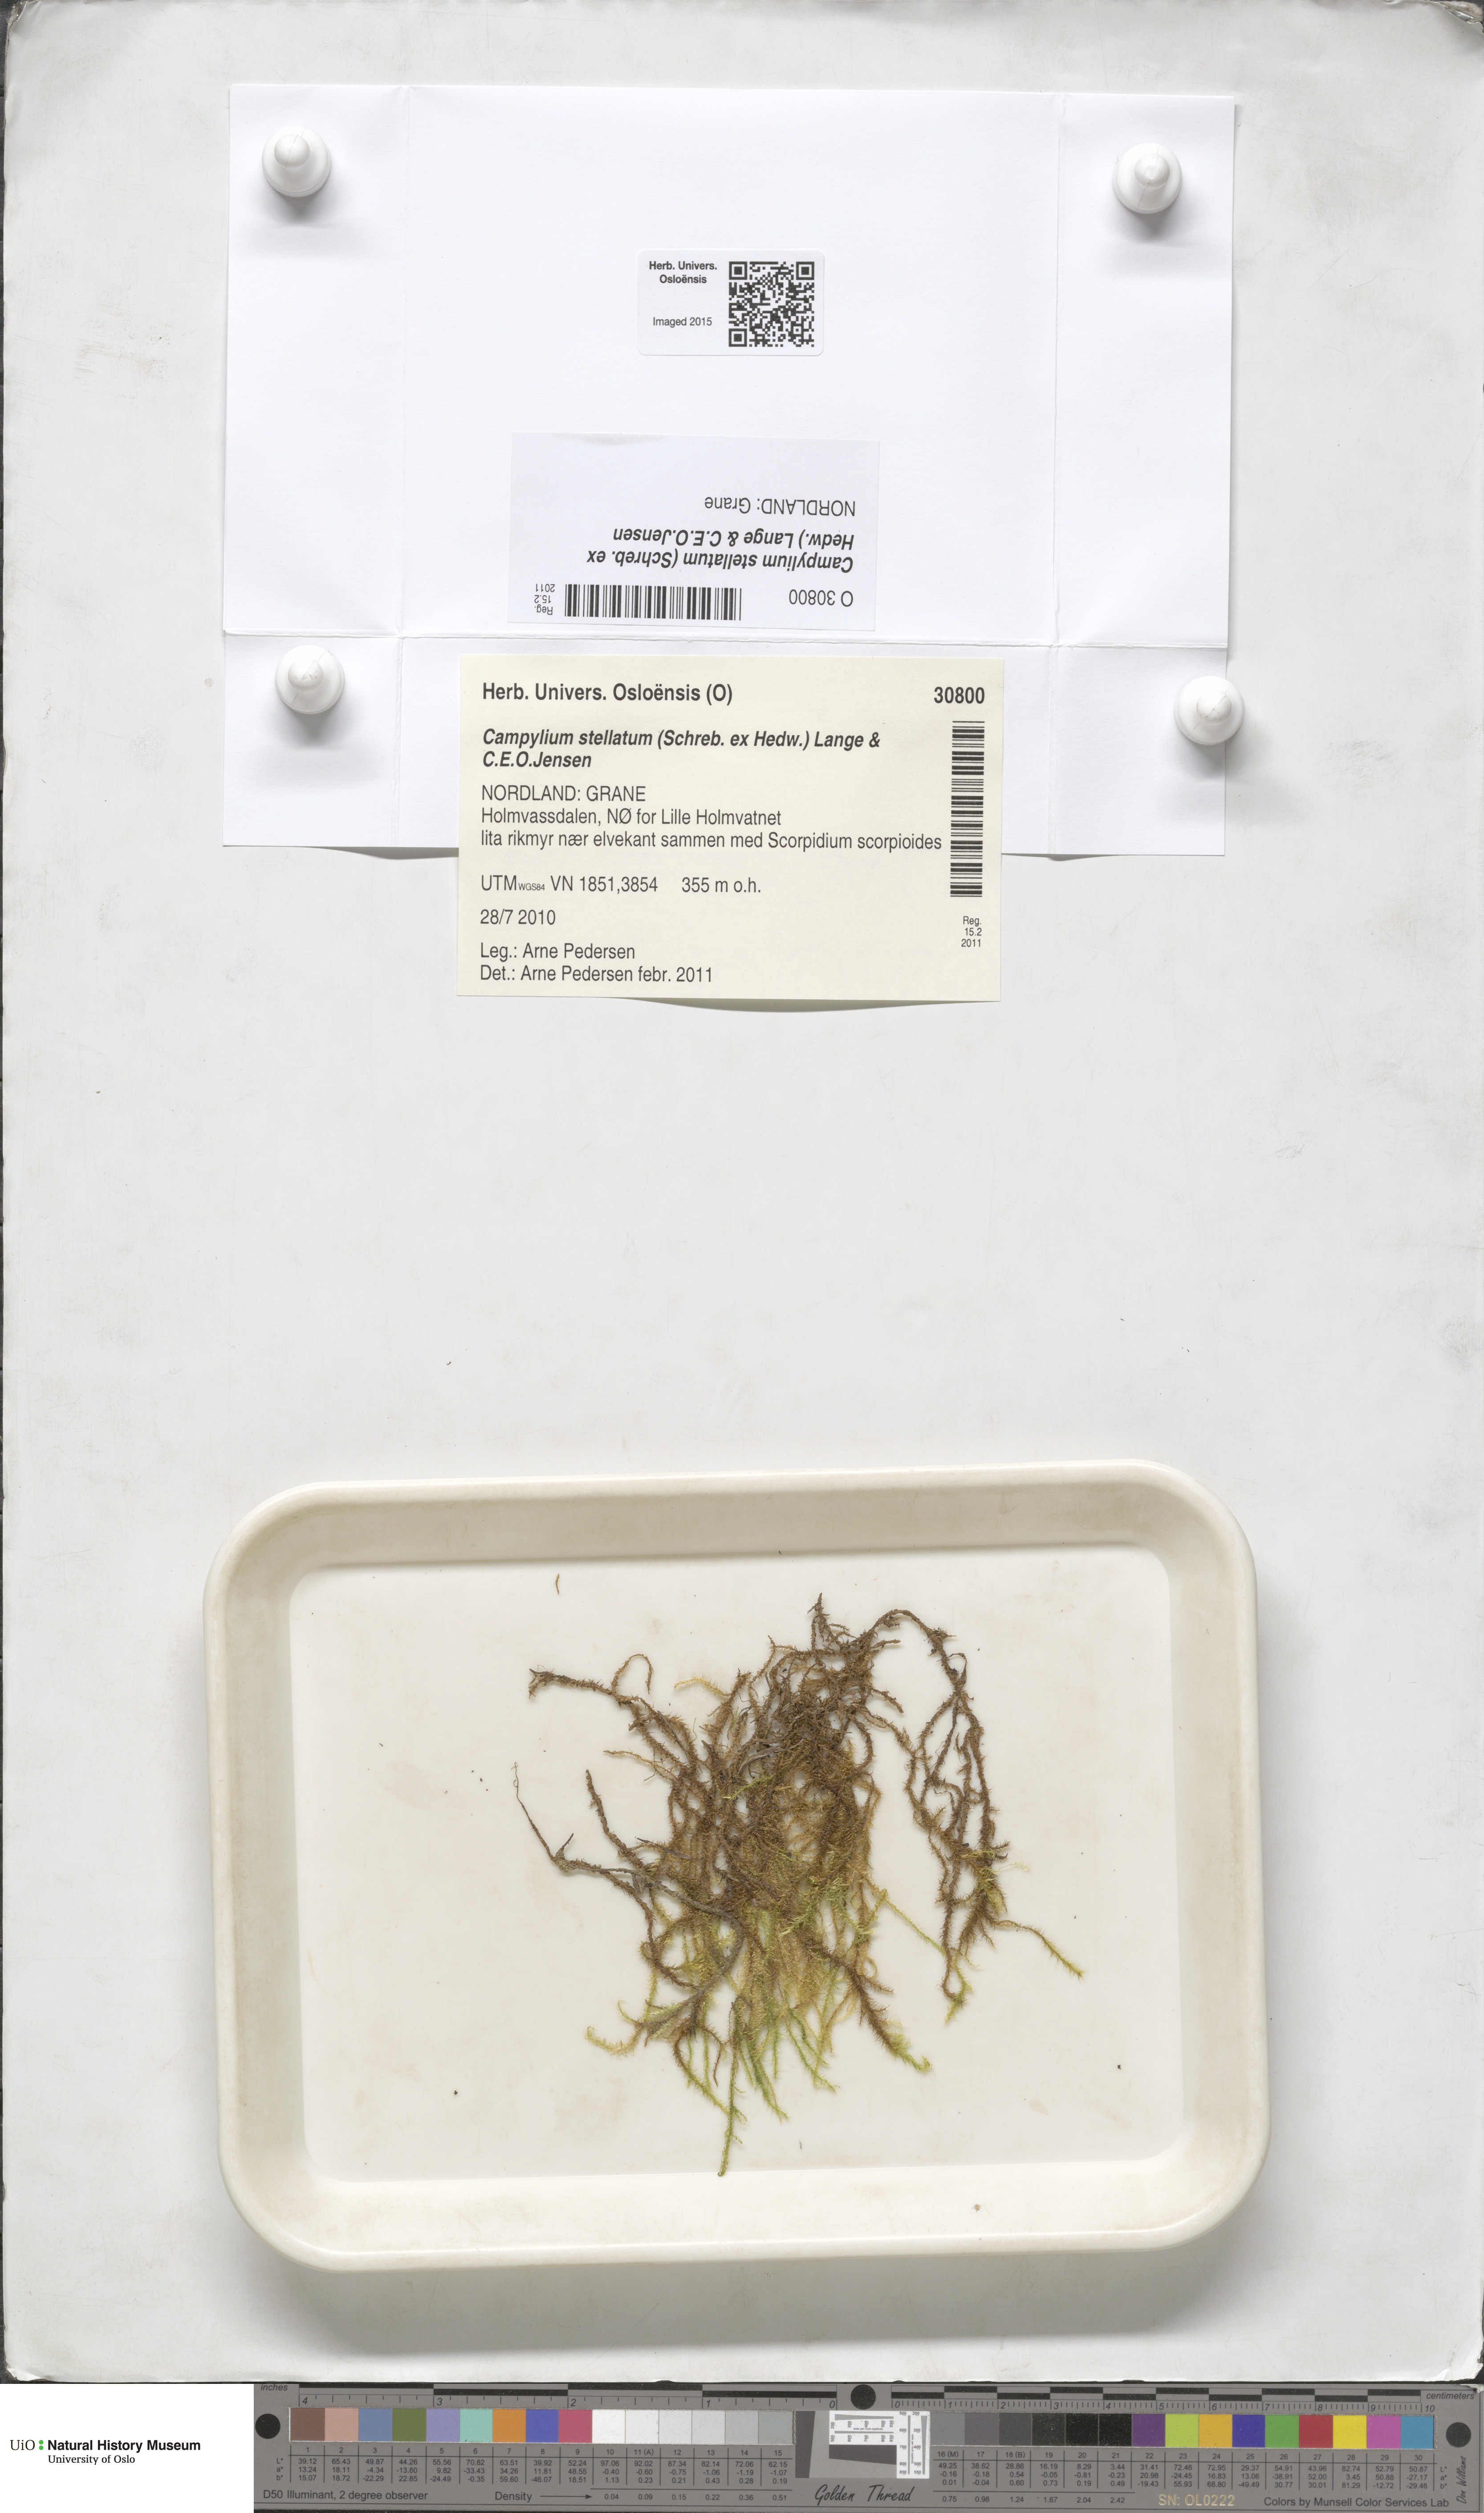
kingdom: Plantae
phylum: Bryophyta
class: Bryopsida
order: Hypnales
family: Amblystegiaceae
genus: Campylium
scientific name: Campylium stellatum
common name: Yellow starry fen moss
